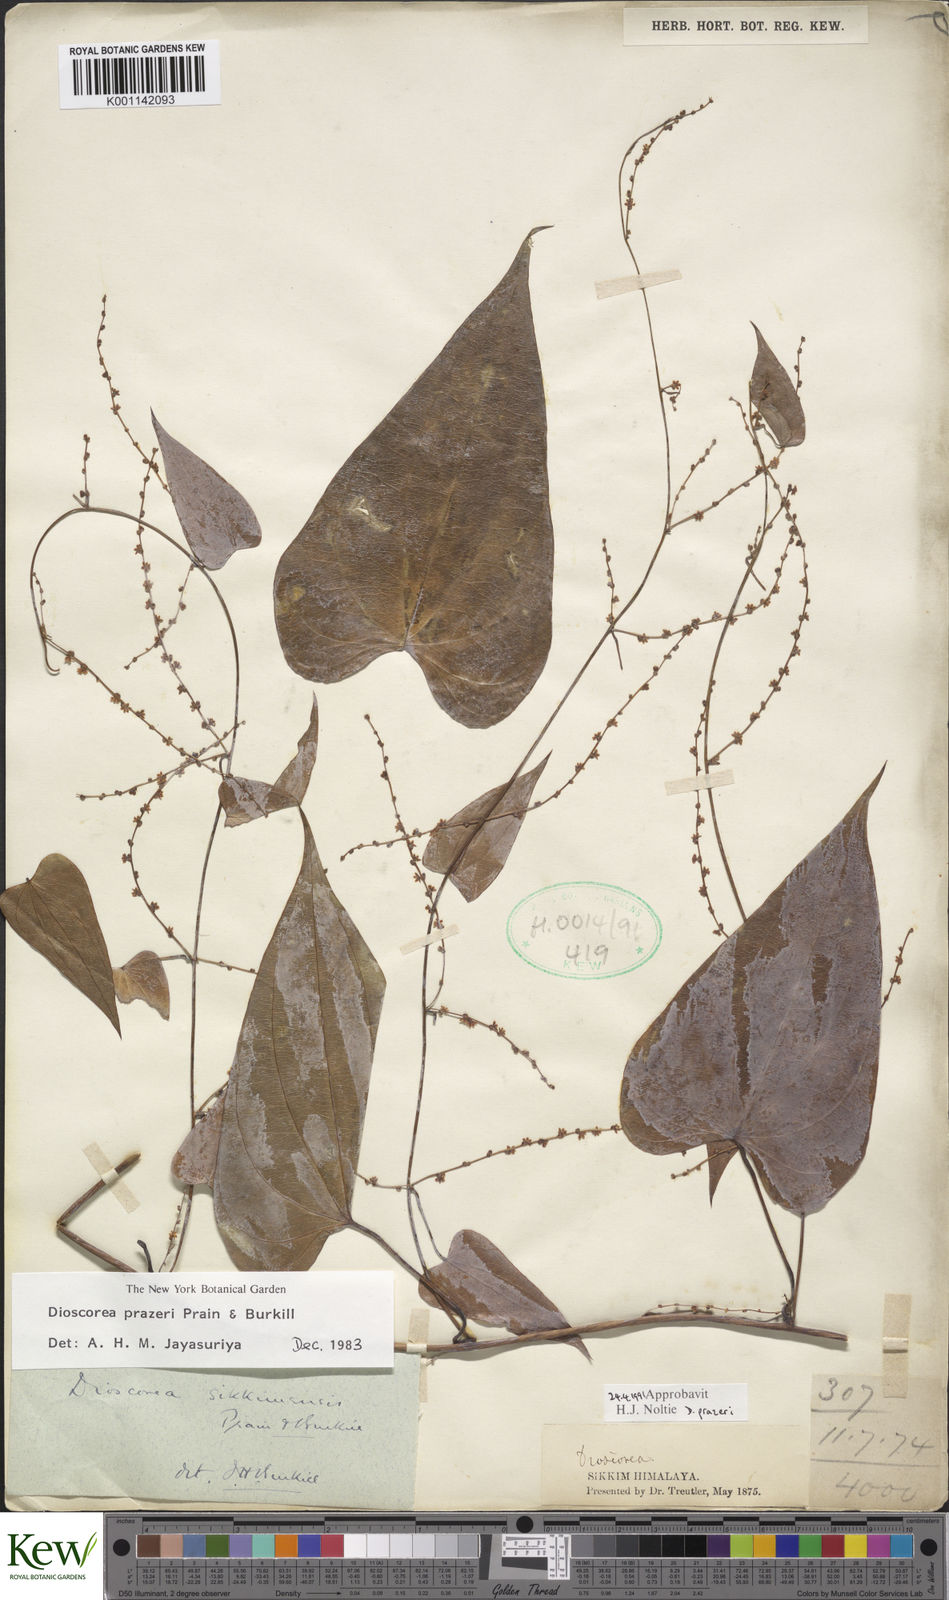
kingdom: Plantae
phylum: Tracheophyta
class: Liliopsida
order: Dioscoreales
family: Dioscoreaceae
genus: Dioscorea
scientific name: Dioscorea prazeri
